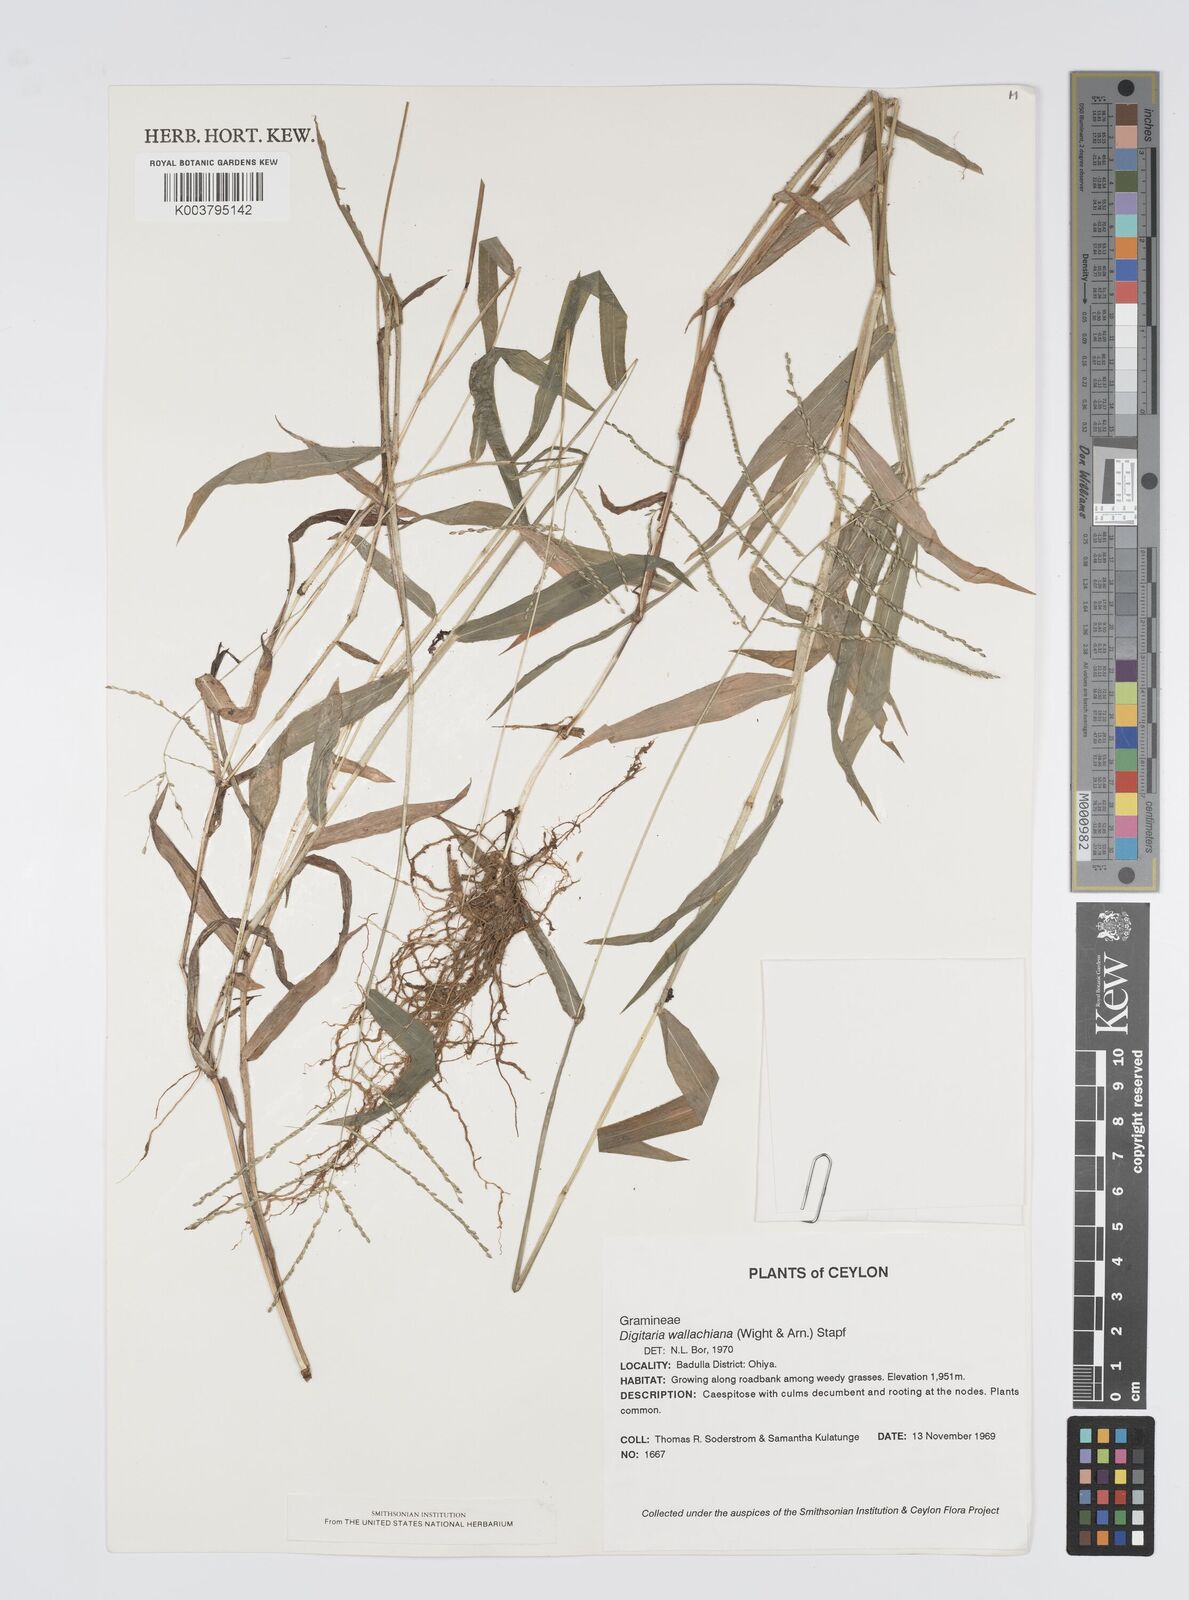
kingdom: Plantae
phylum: Tracheophyta
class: Liliopsida
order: Poales
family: Poaceae
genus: Digitaria
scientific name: Digitaria wallichiana
